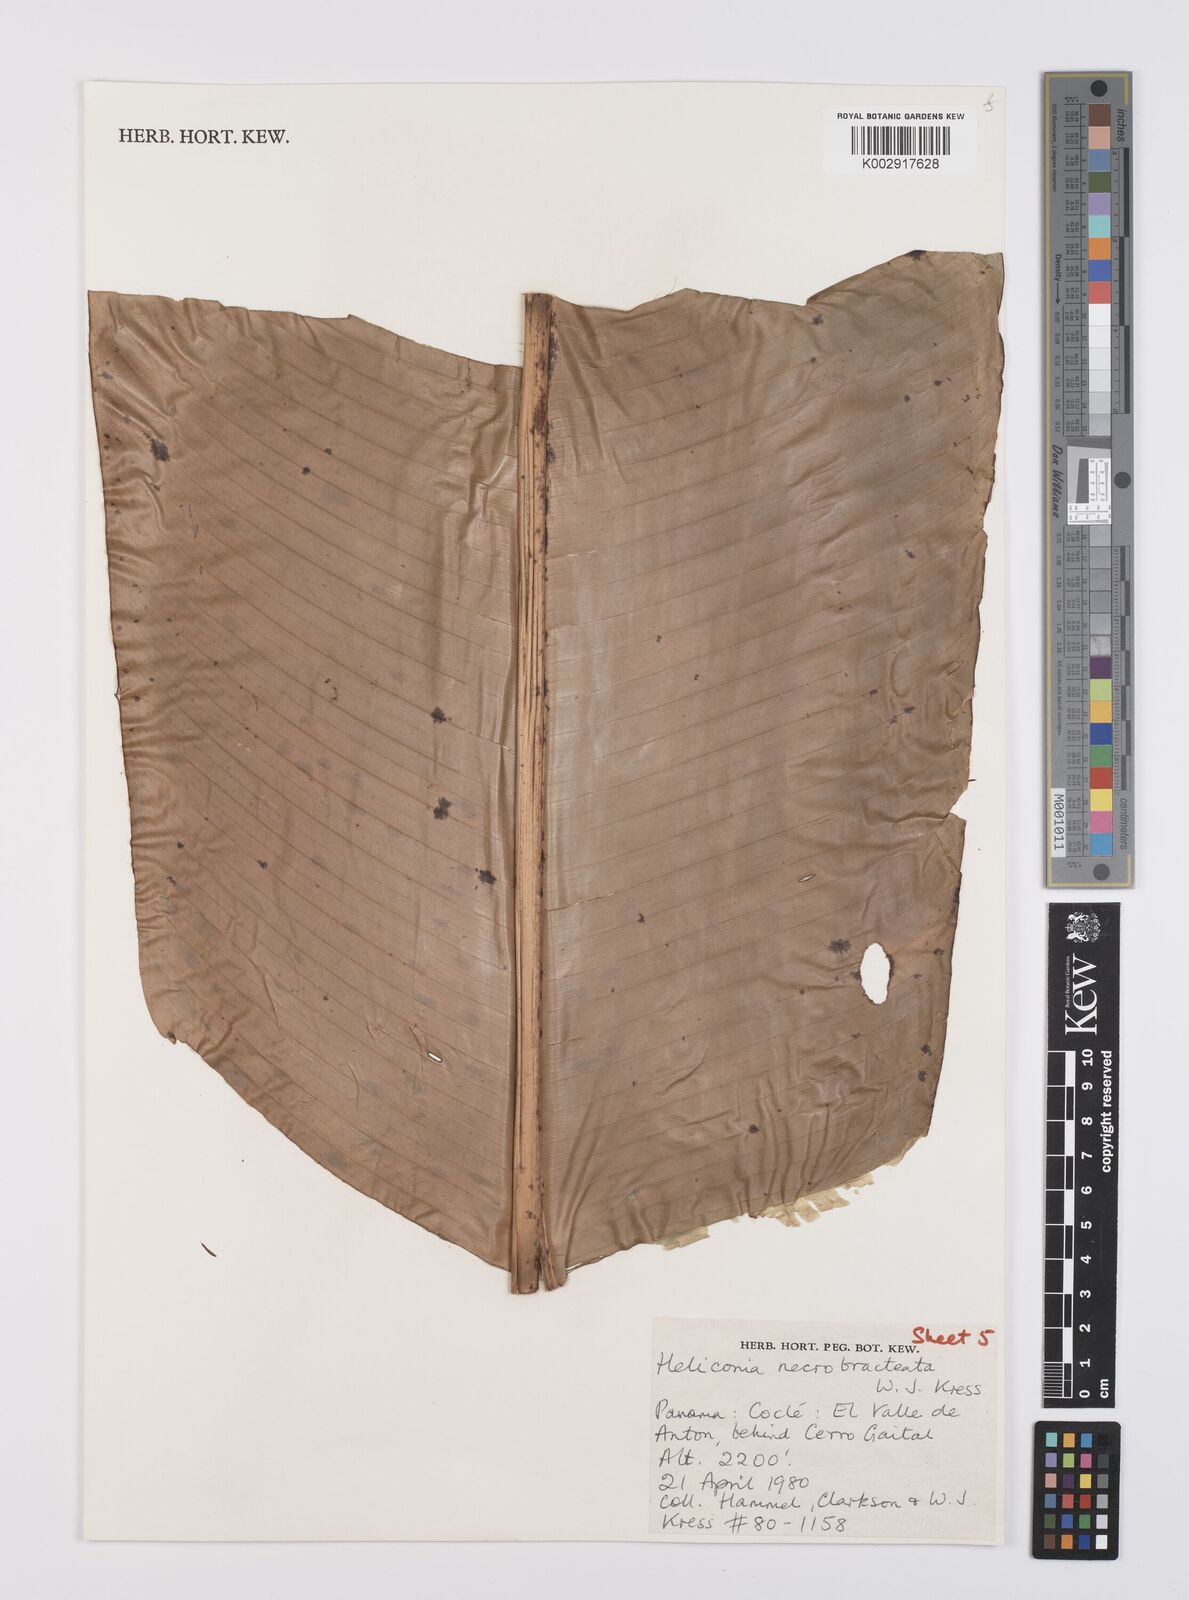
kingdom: Plantae
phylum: Tracheophyta
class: Liliopsida
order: Zingiberales
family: Heliconiaceae
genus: Heliconia
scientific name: Heliconia necrobracteata
